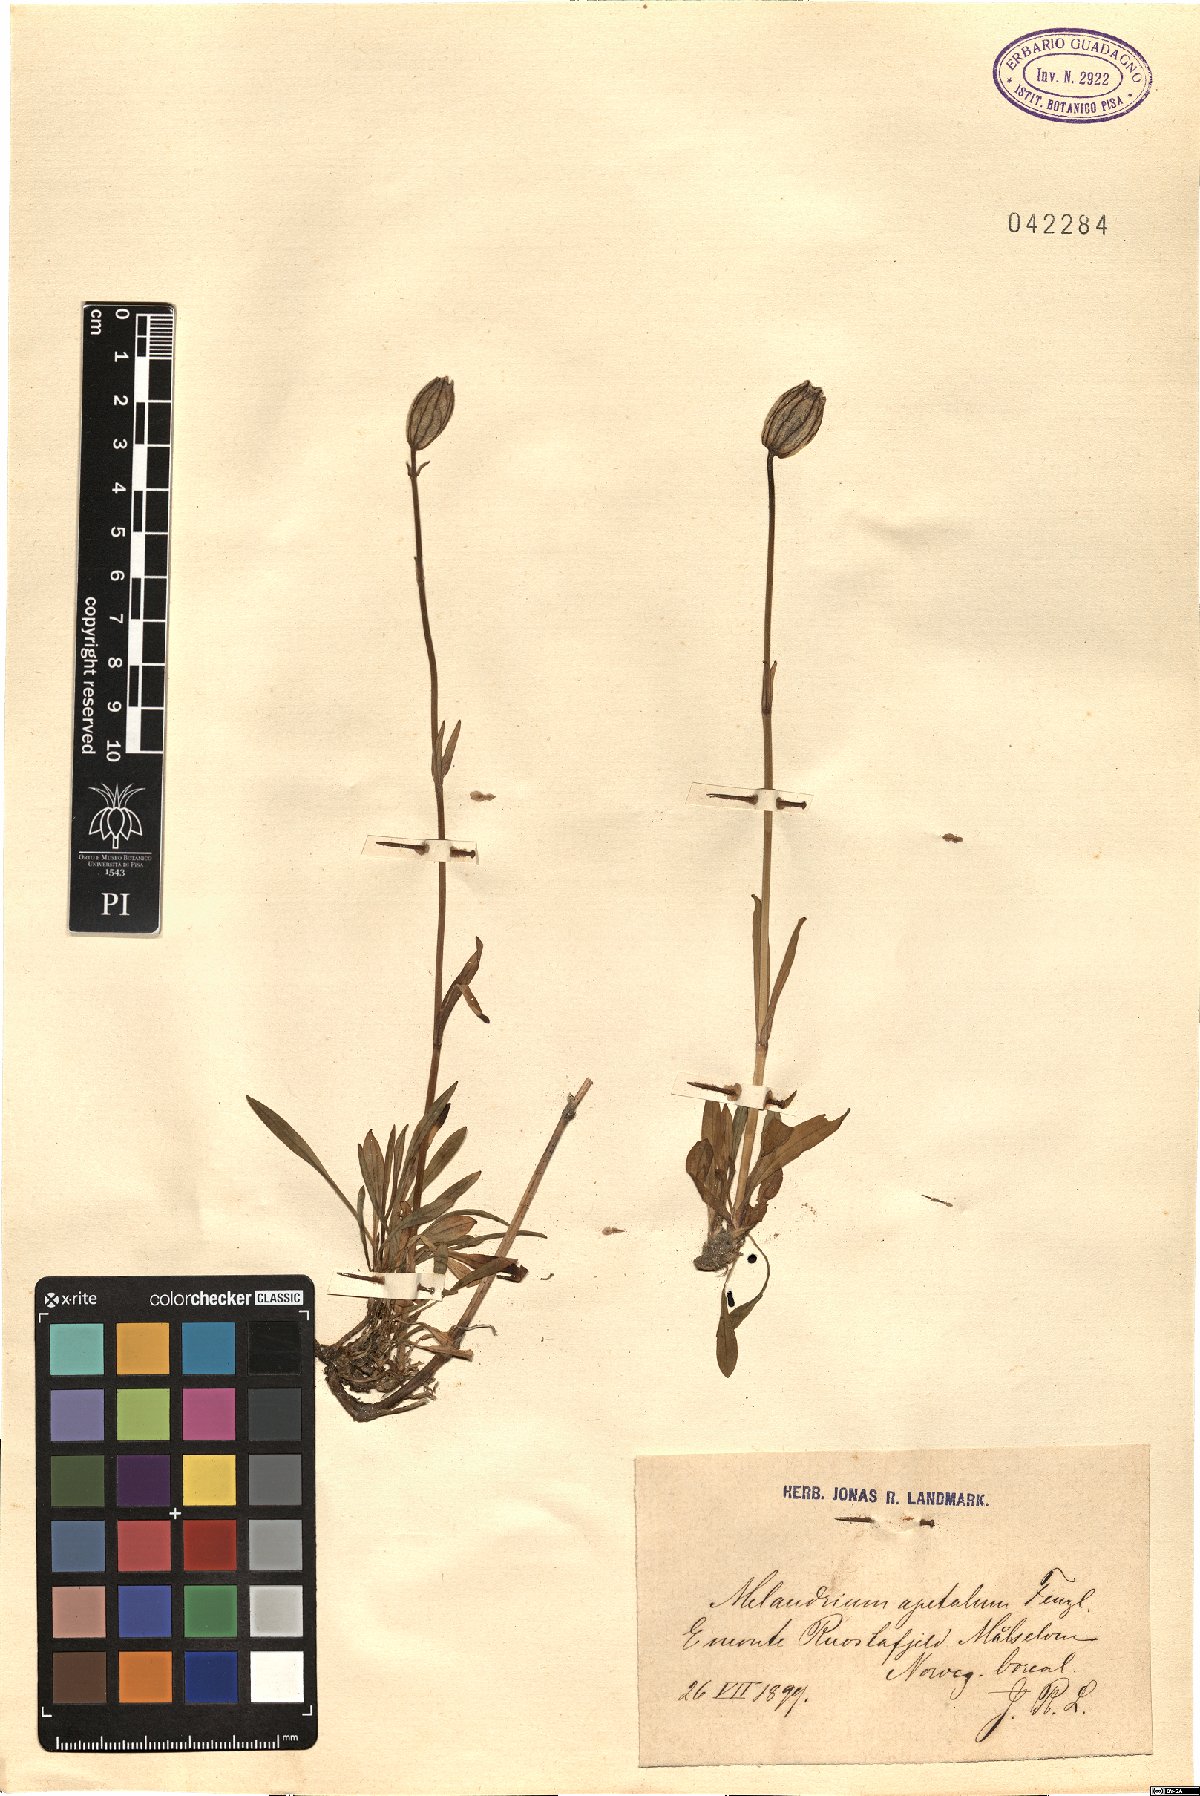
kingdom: Plantae
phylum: Tracheophyta
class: Magnoliopsida
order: Caryophyllales
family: Caryophyllaceae
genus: Silene
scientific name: Silene wahlbergella
